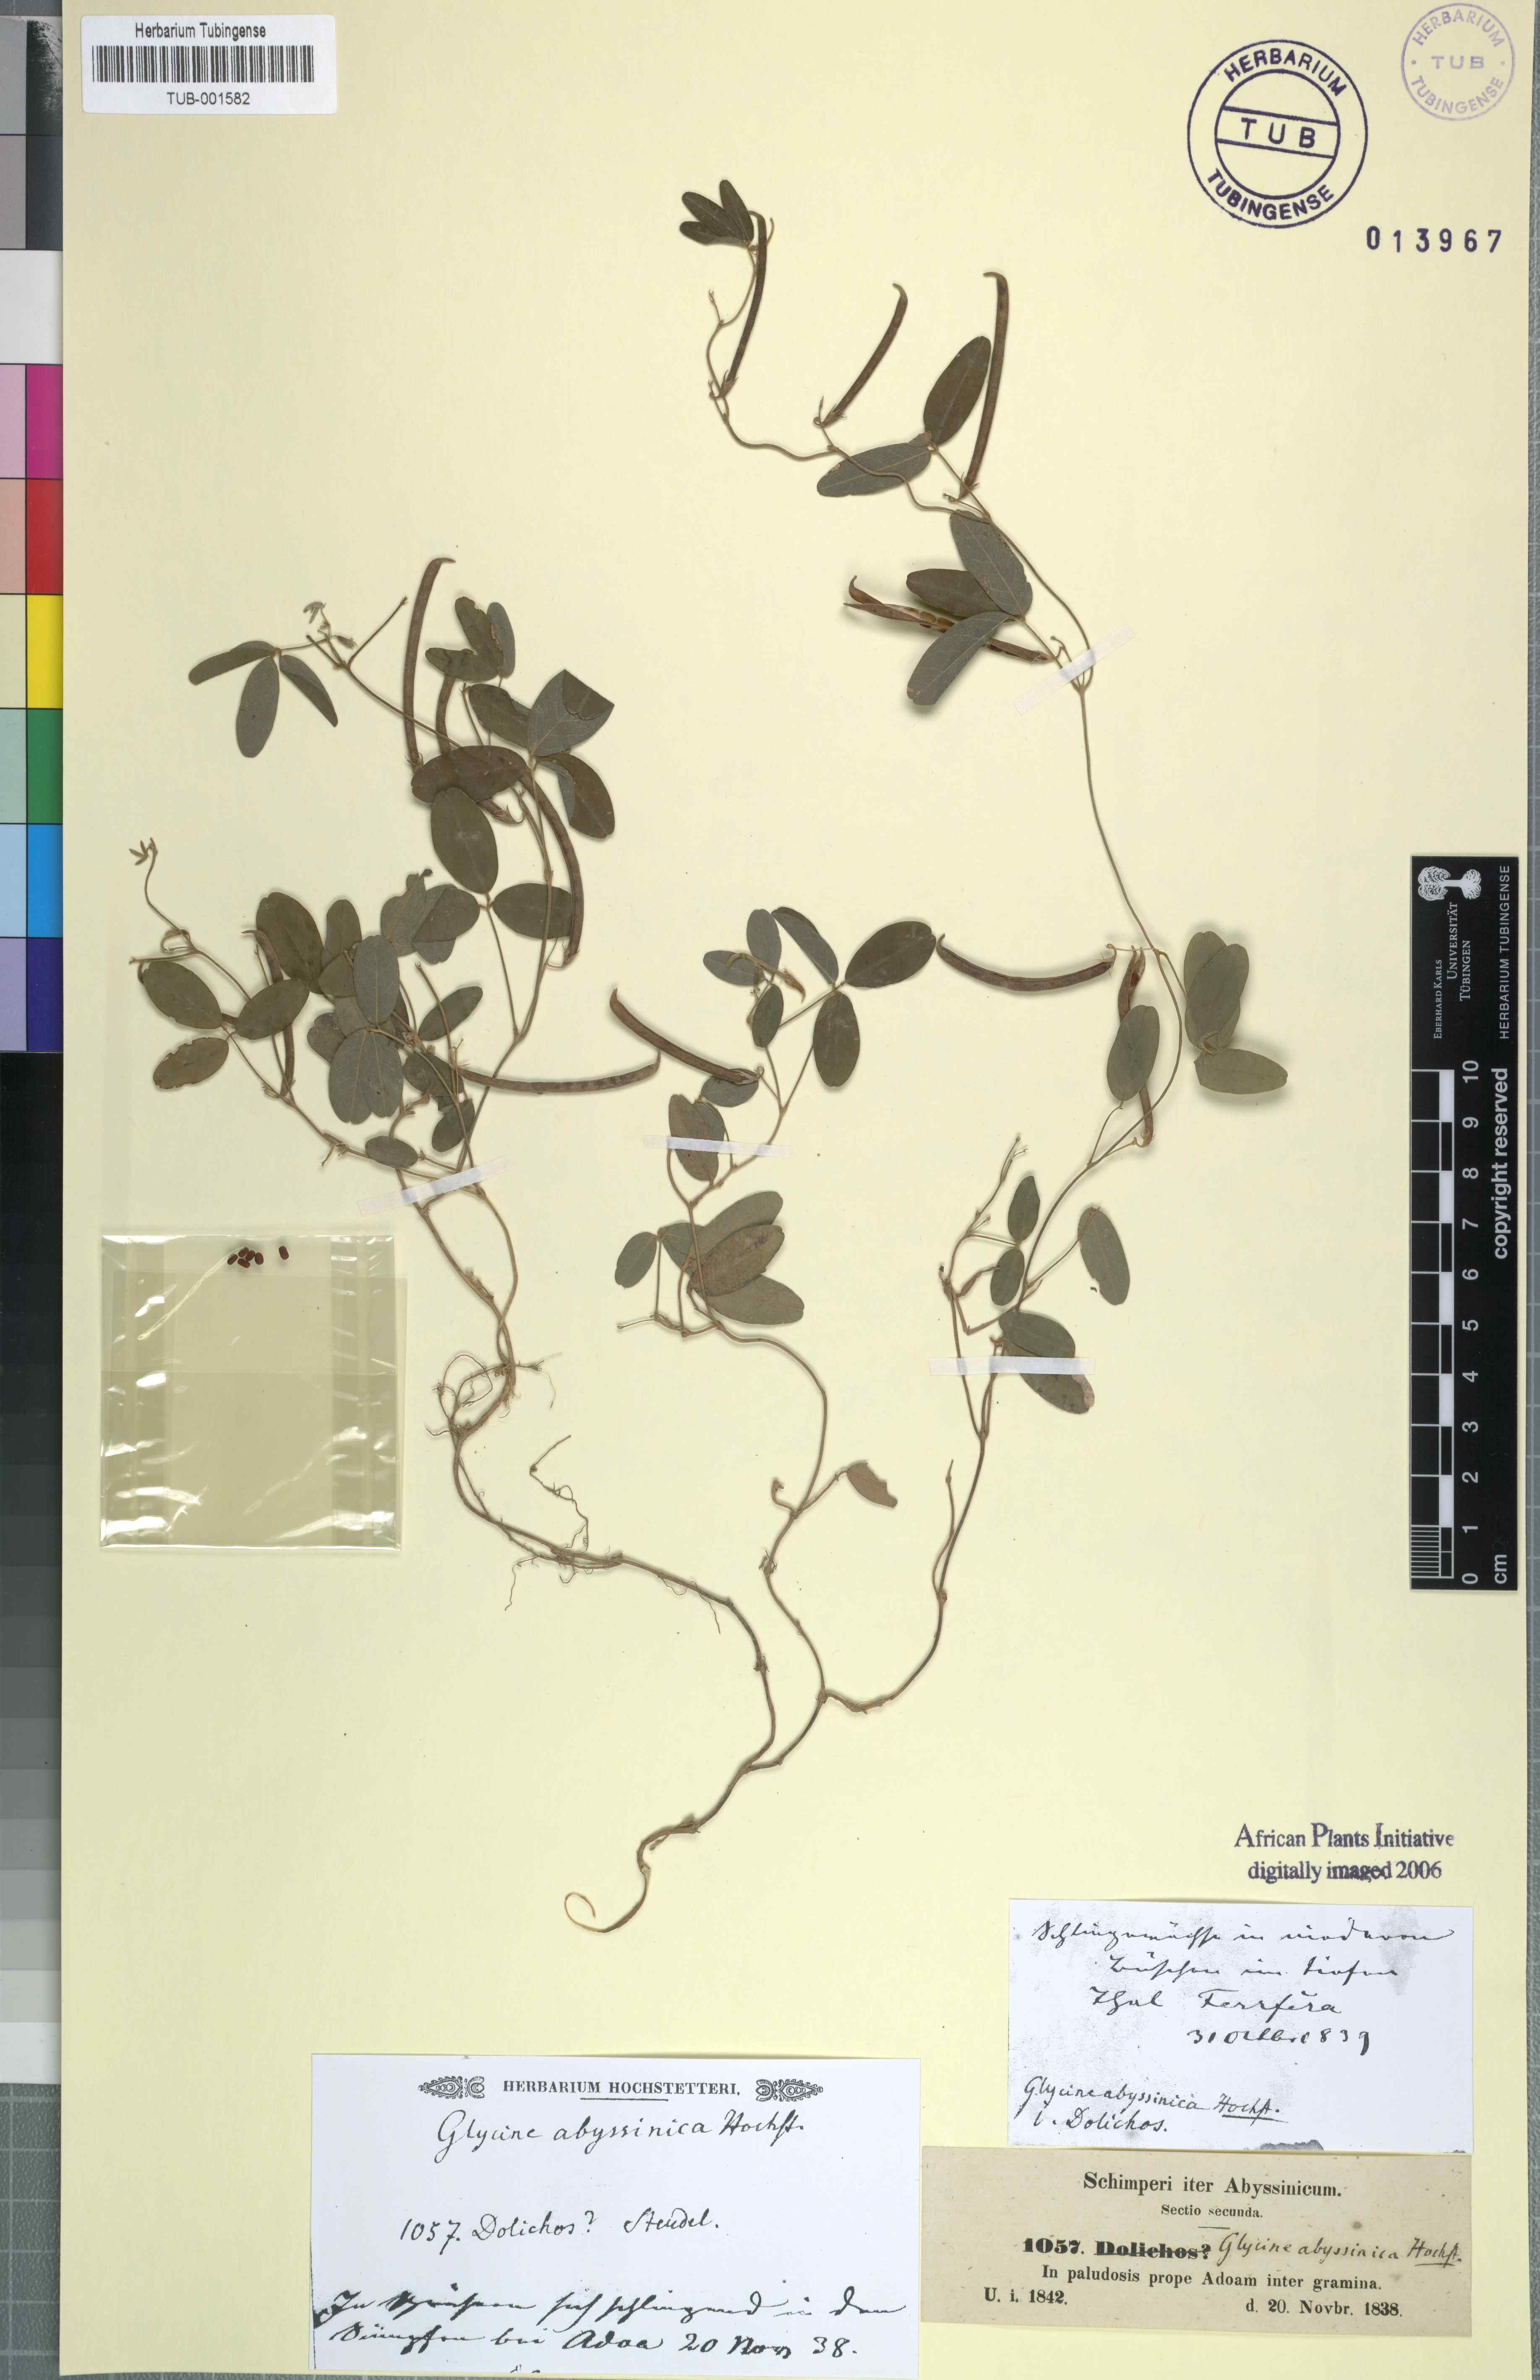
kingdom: Plantae
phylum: Tracheophyta
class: Magnoliopsida
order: Fabales
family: Fabaceae
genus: Teramnus
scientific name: Teramnus labialis
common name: Blue wiss
